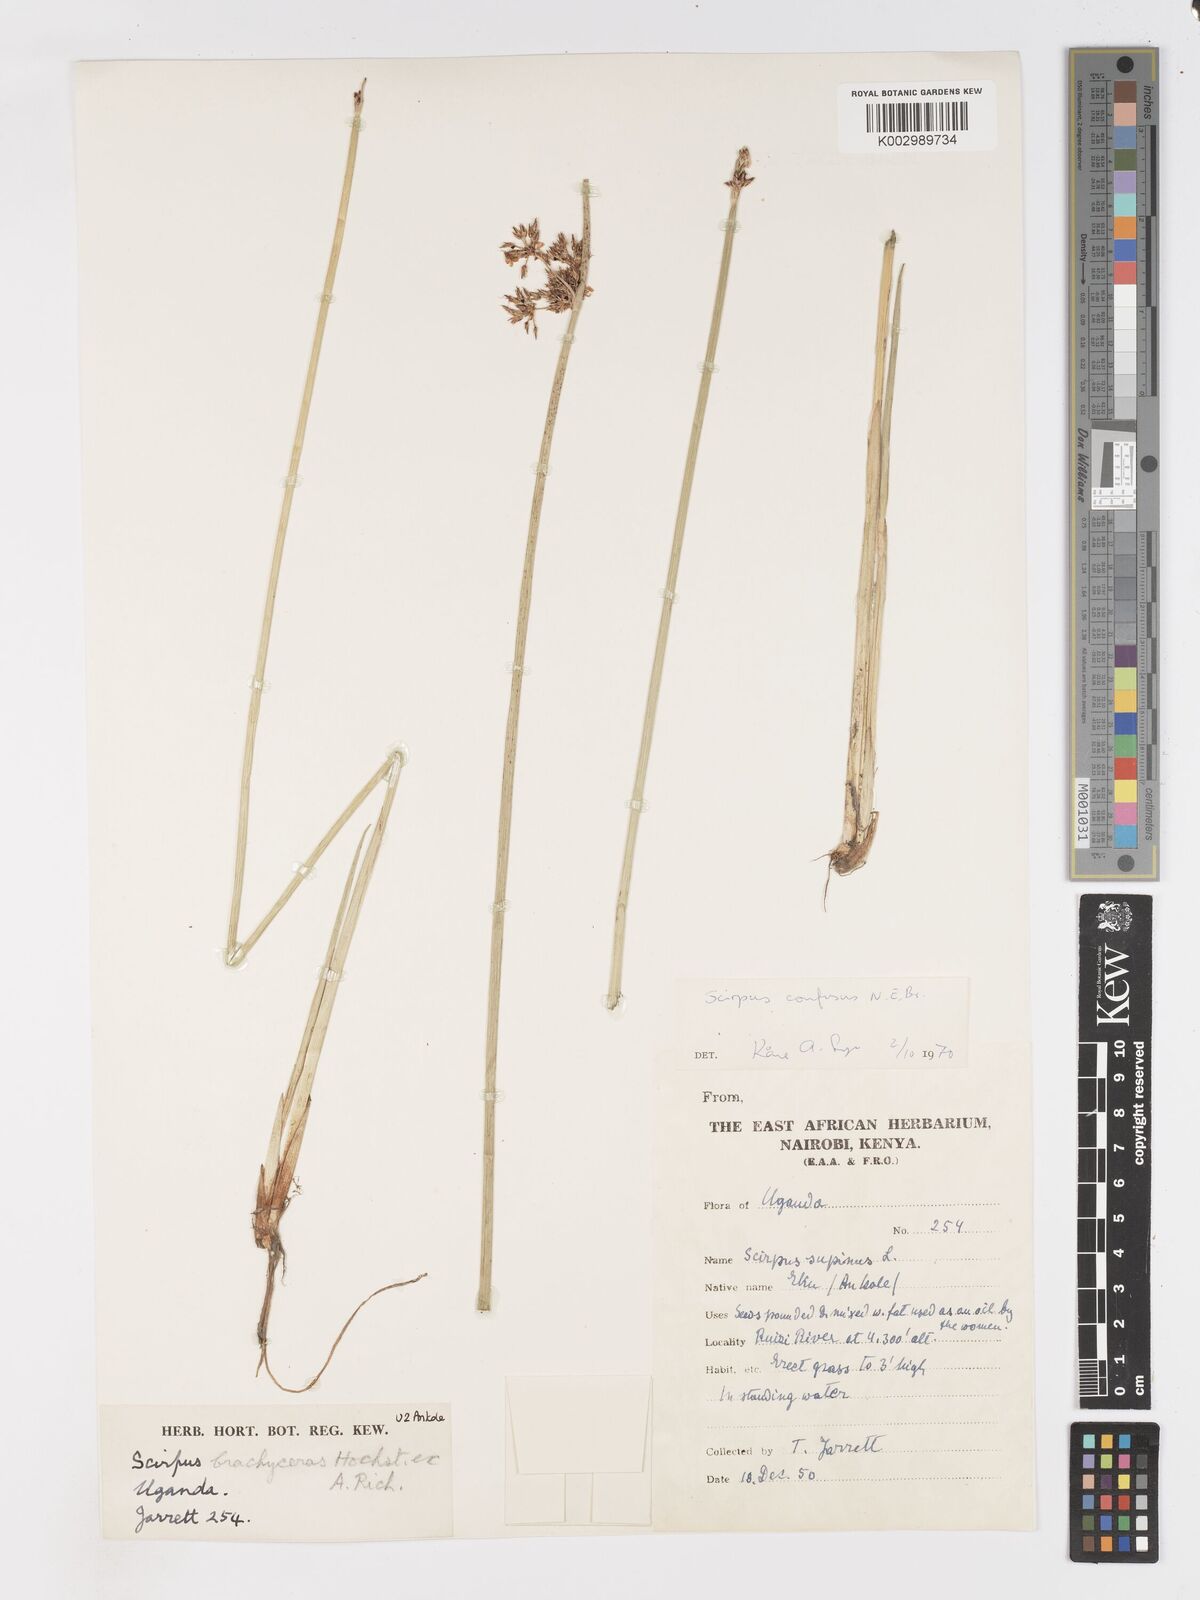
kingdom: Plantae
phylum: Tracheophyta
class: Liliopsida
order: Poales
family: Cyperaceae
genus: Schoenoplectiella
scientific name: Schoenoplectiella confusa
